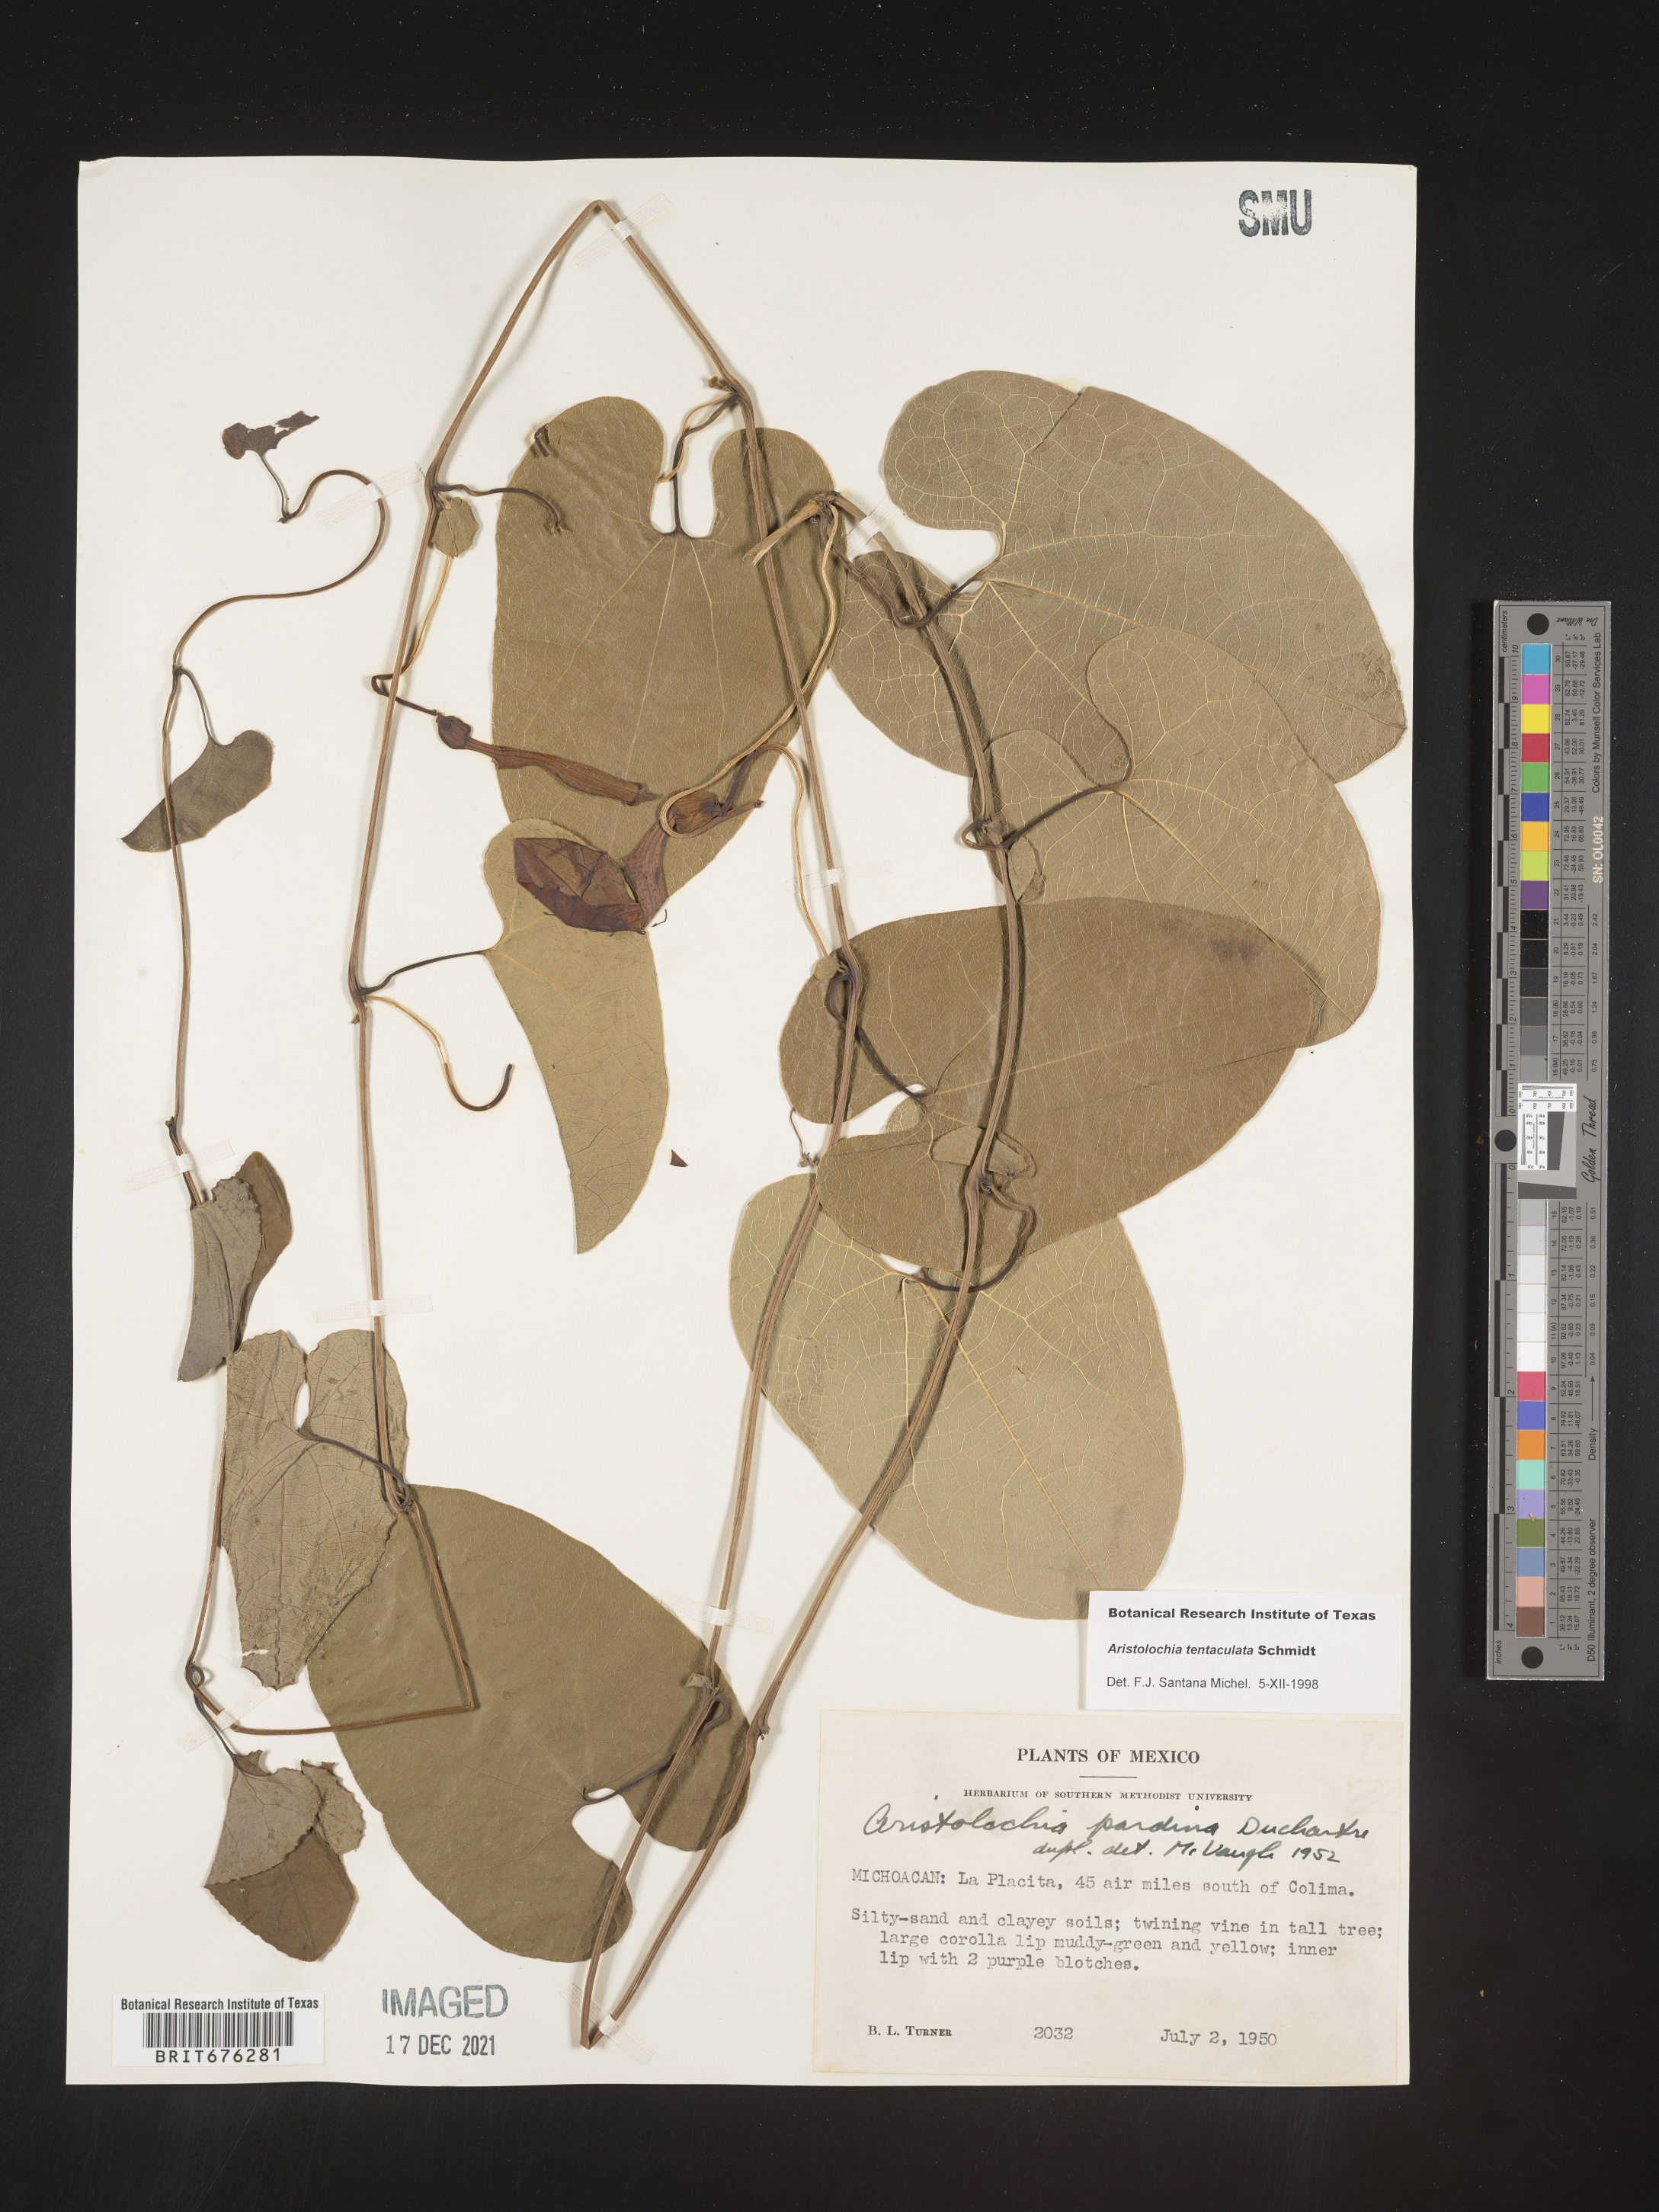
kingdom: Plantae
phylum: Tracheophyta
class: Magnoliopsida
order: Piperales
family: Aristolochiaceae
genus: Aristolochia
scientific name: Aristolochia
